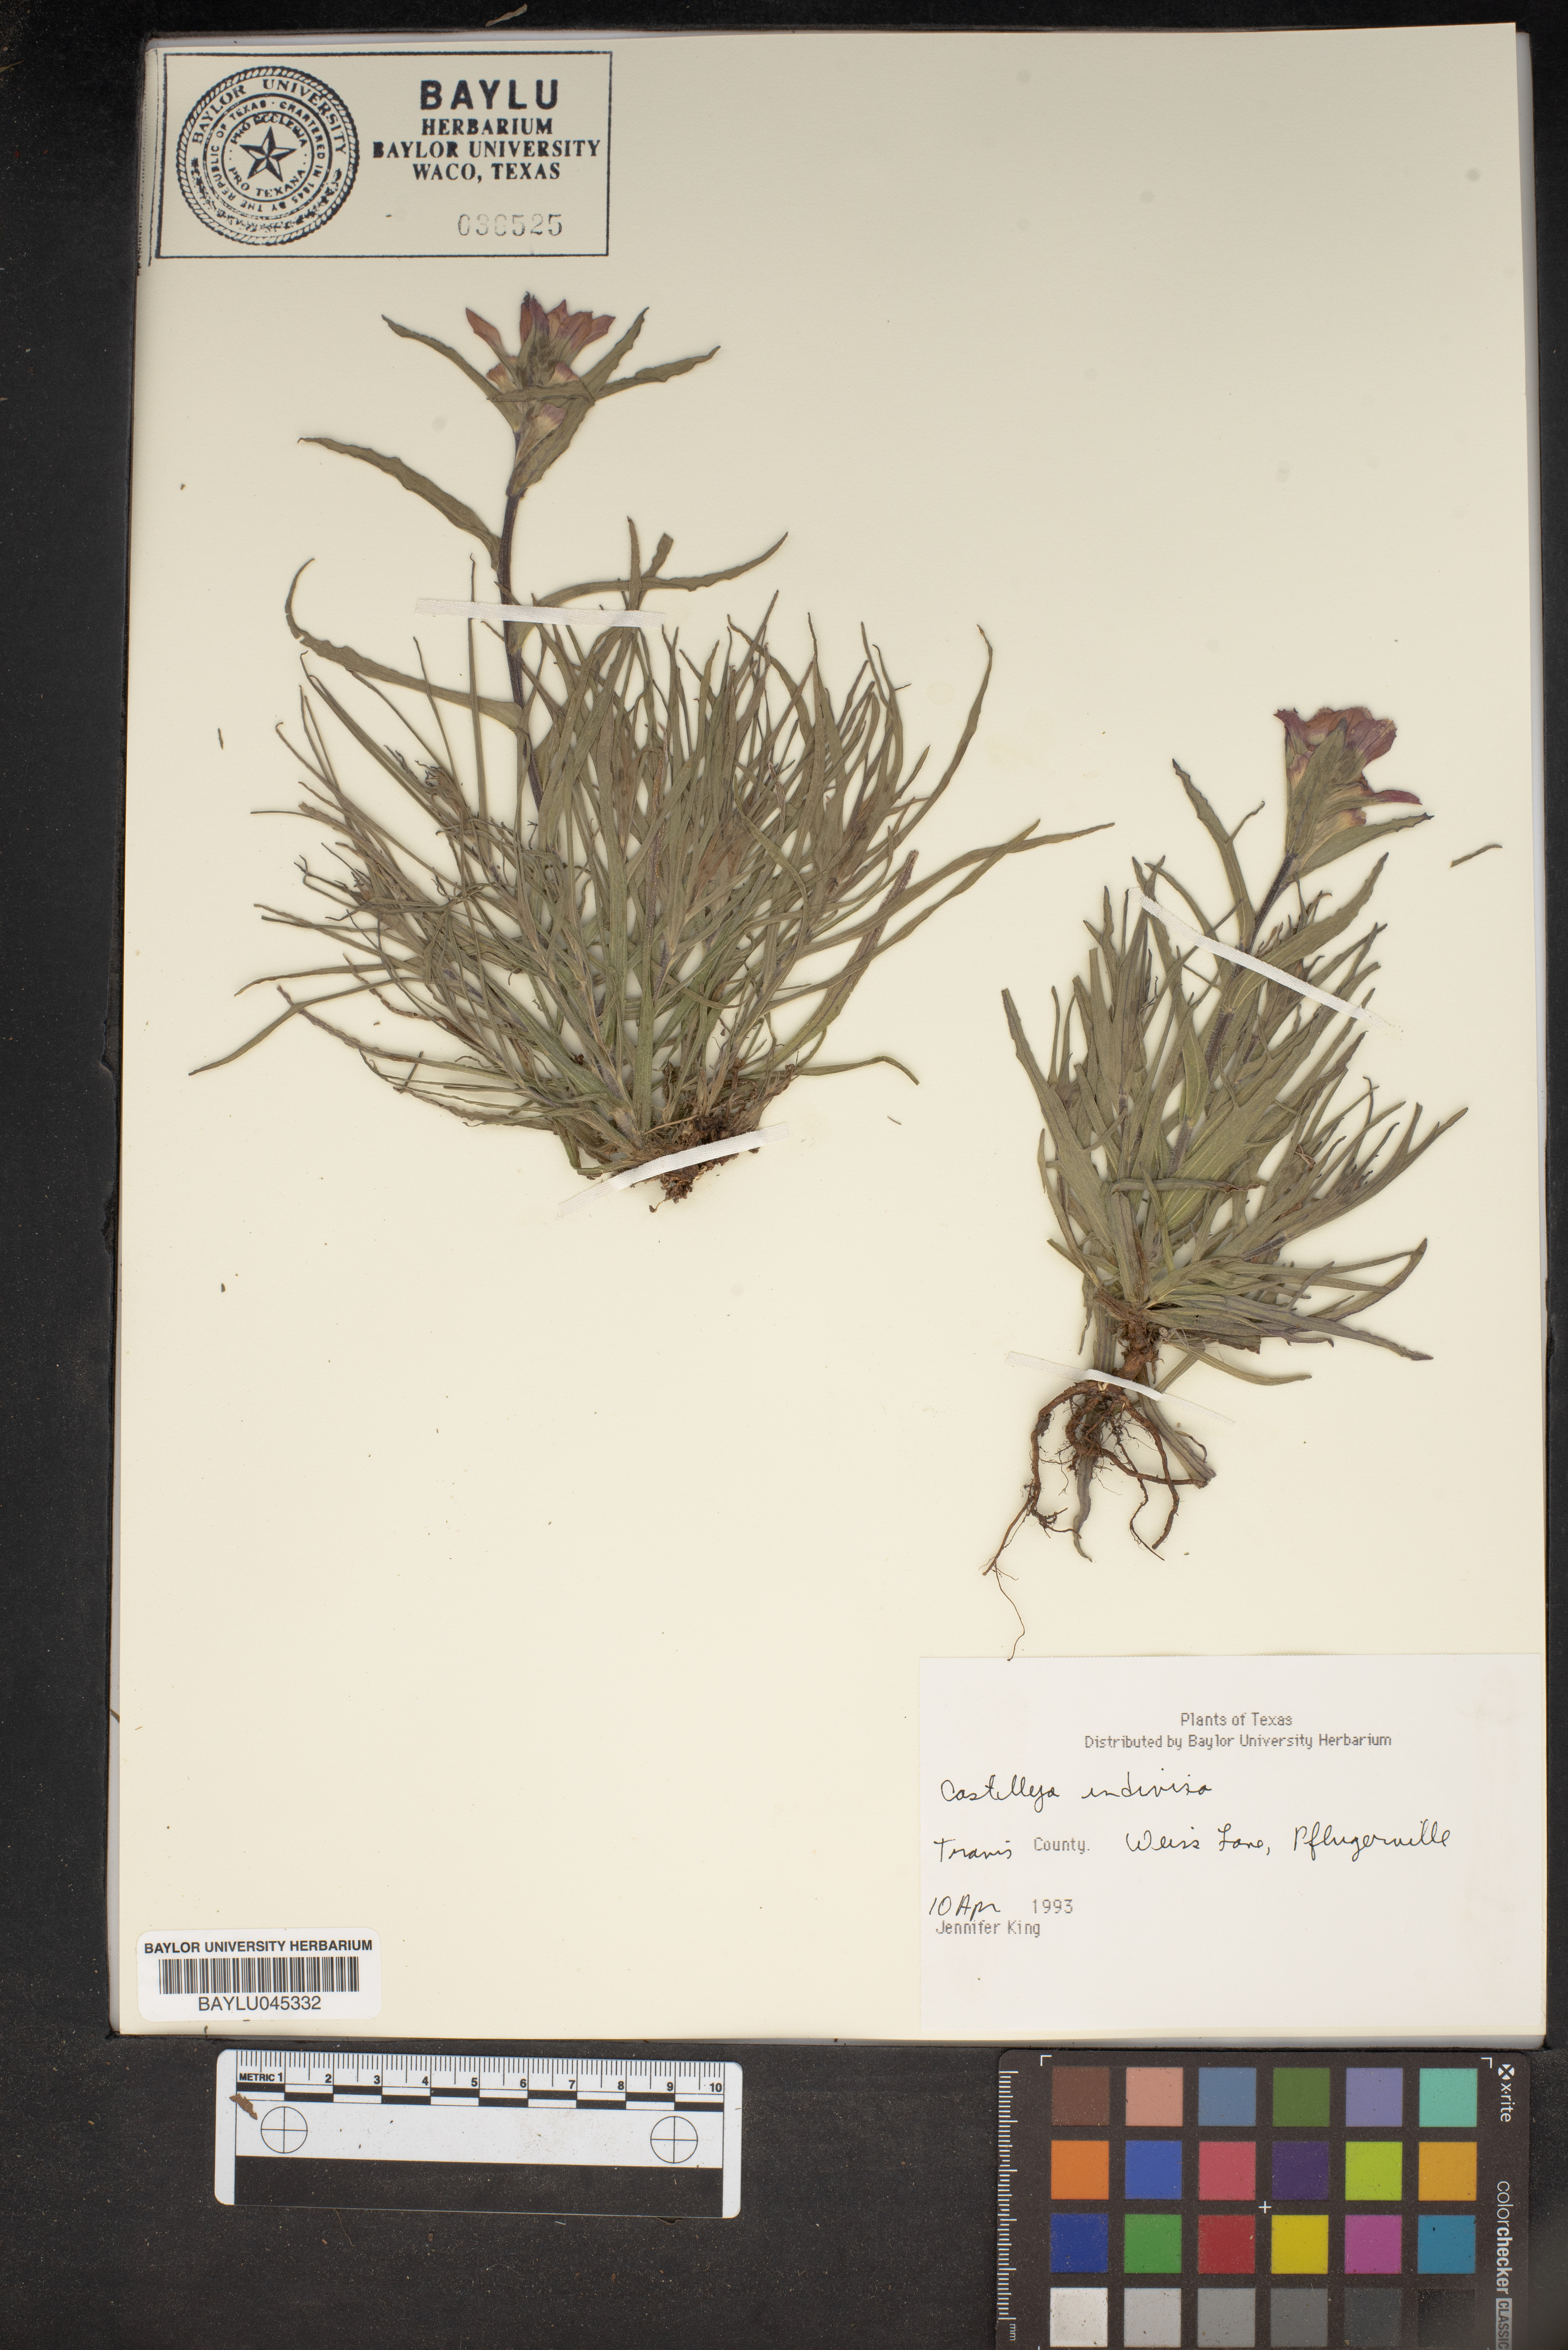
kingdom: Plantae
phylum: Tracheophyta
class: Magnoliopsida
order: Lamiales
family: Orobanchaceae
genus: Castilleja
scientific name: Castilleja indivisa
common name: Texas paintbrush
